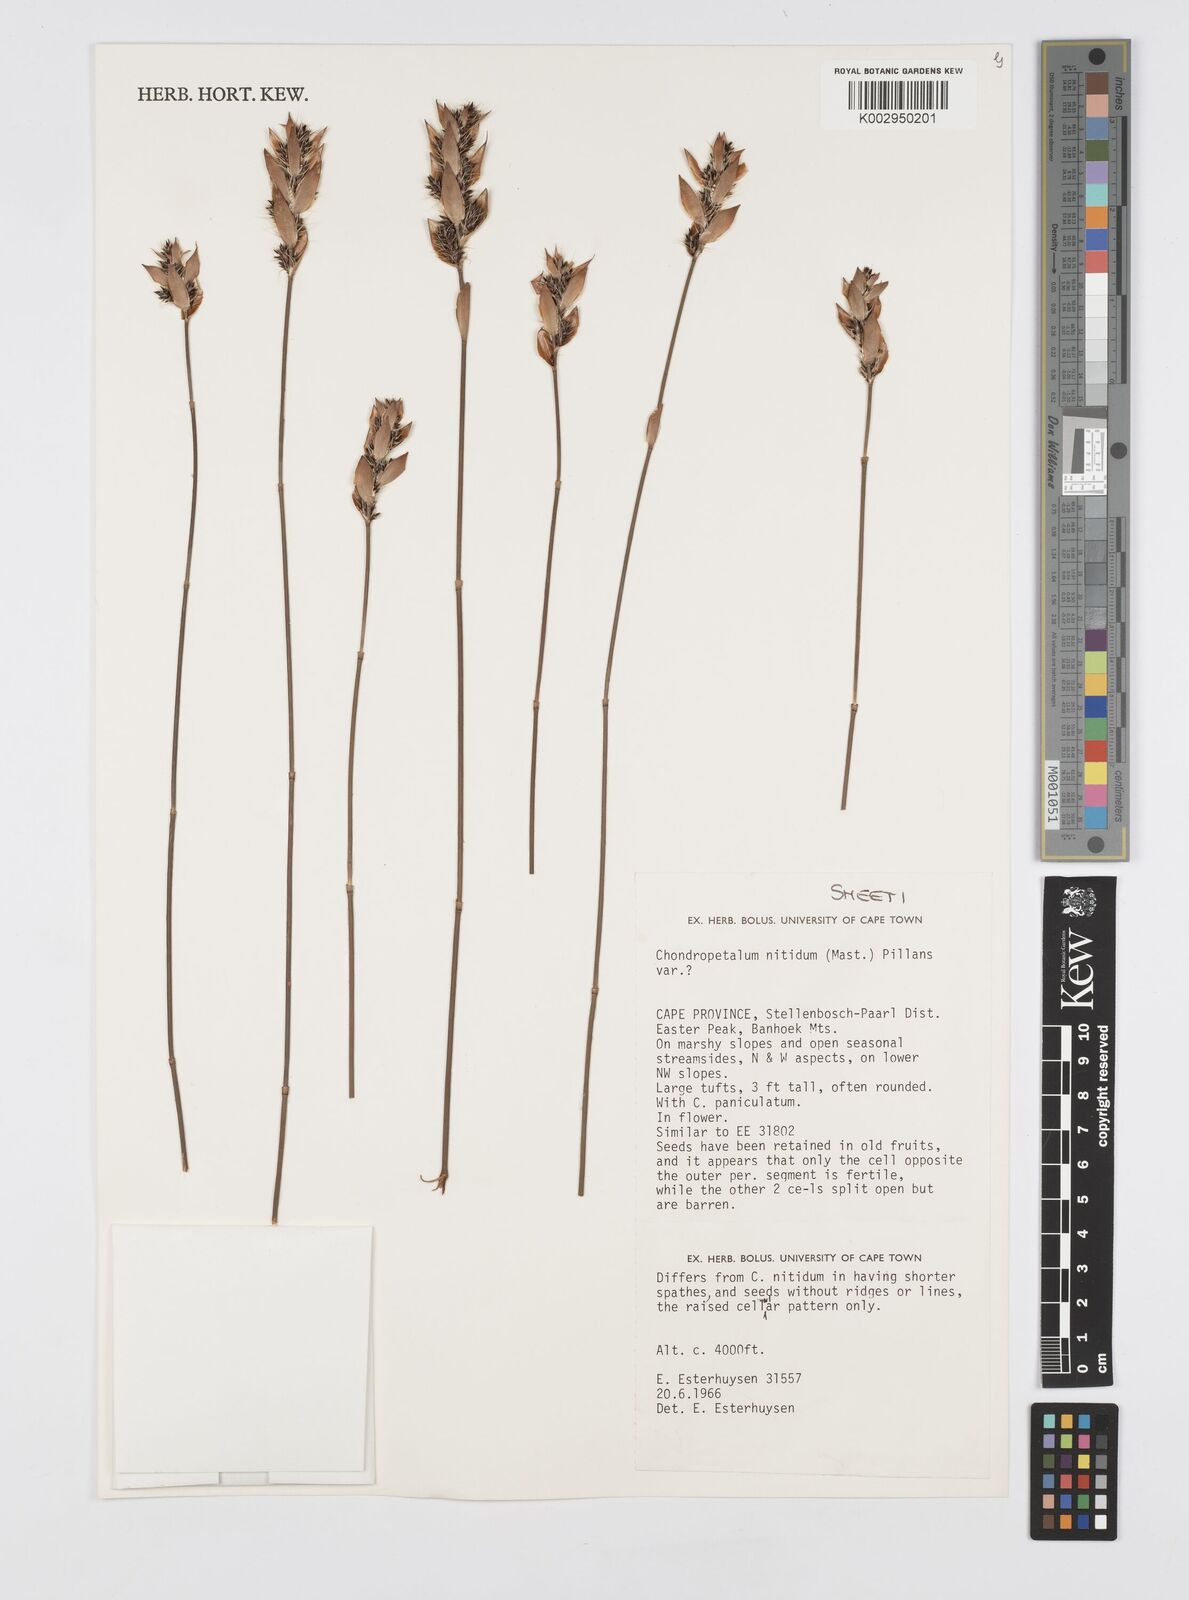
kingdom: Plantae
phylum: Tracheophyta
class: Liliopsida
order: Poales
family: Restionaceae
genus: Askidiosperma
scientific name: Askidiosperma nitidum
